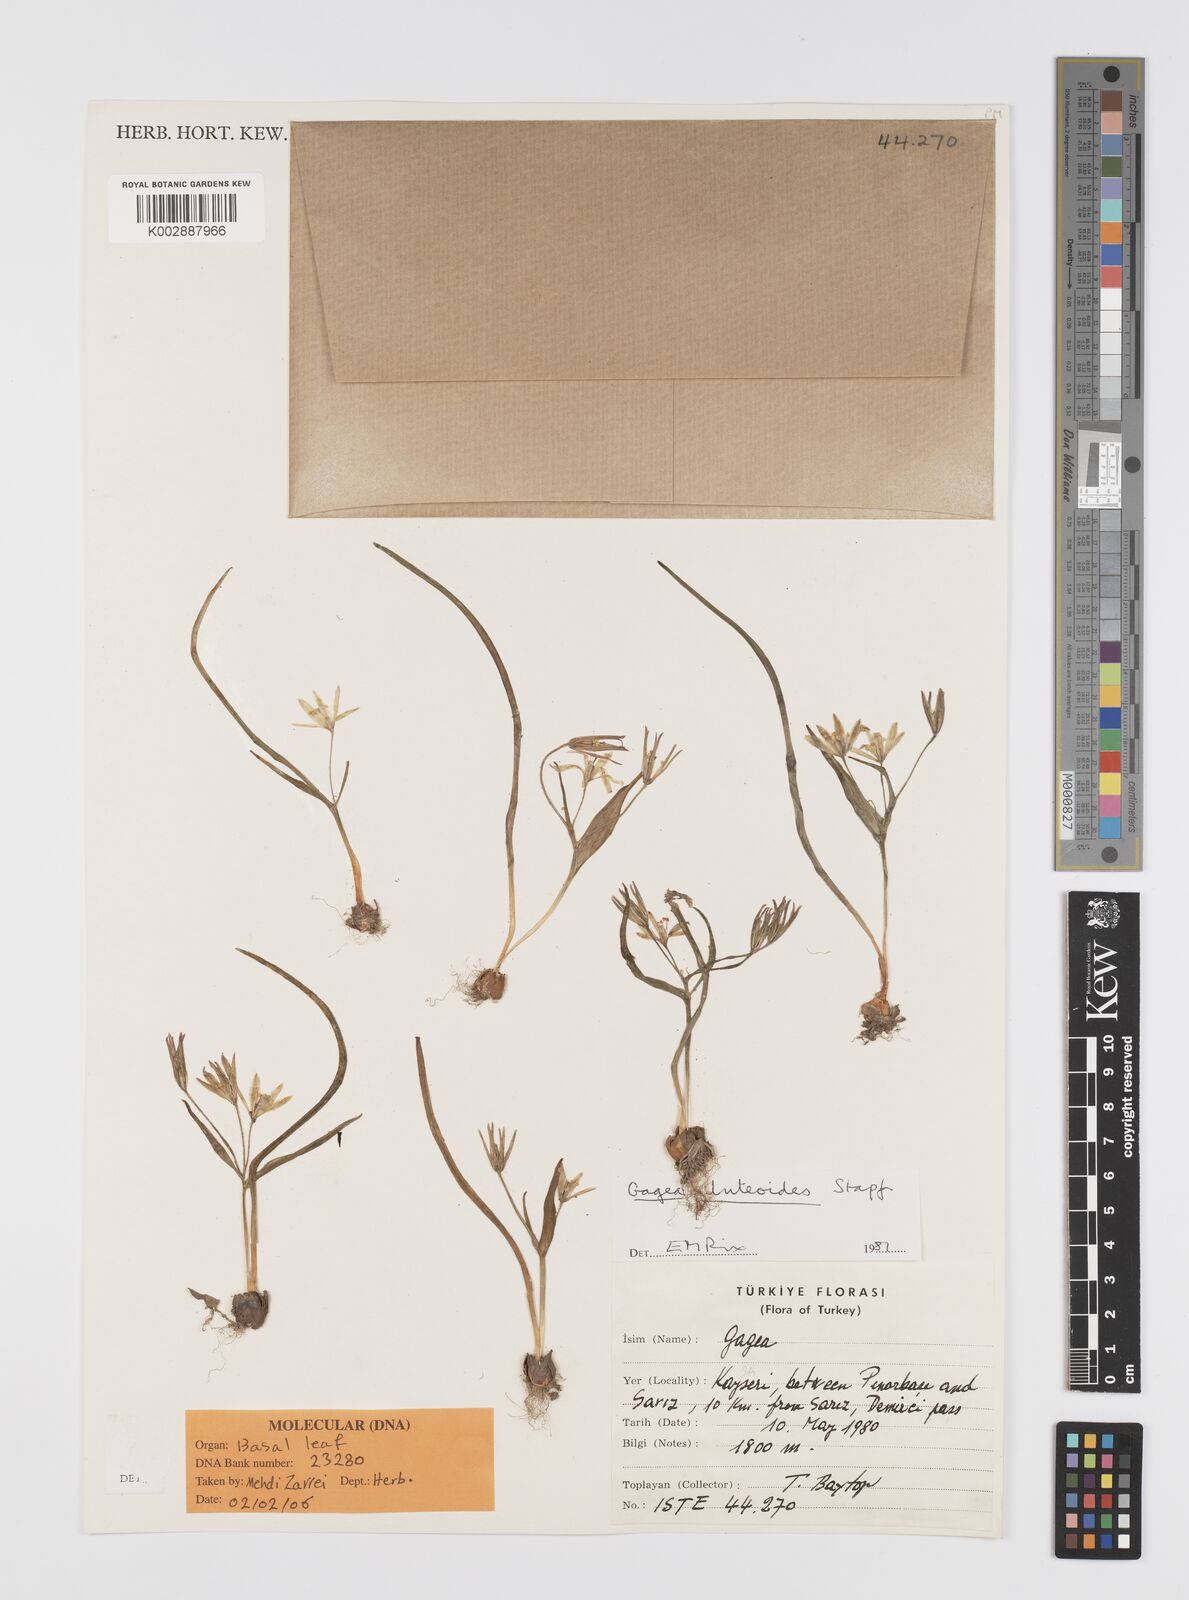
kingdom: Plantae
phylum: Tracheophyta
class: Liliopsida
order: Liliales
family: Liliaceae
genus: Gagea
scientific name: Gagea luteoides
